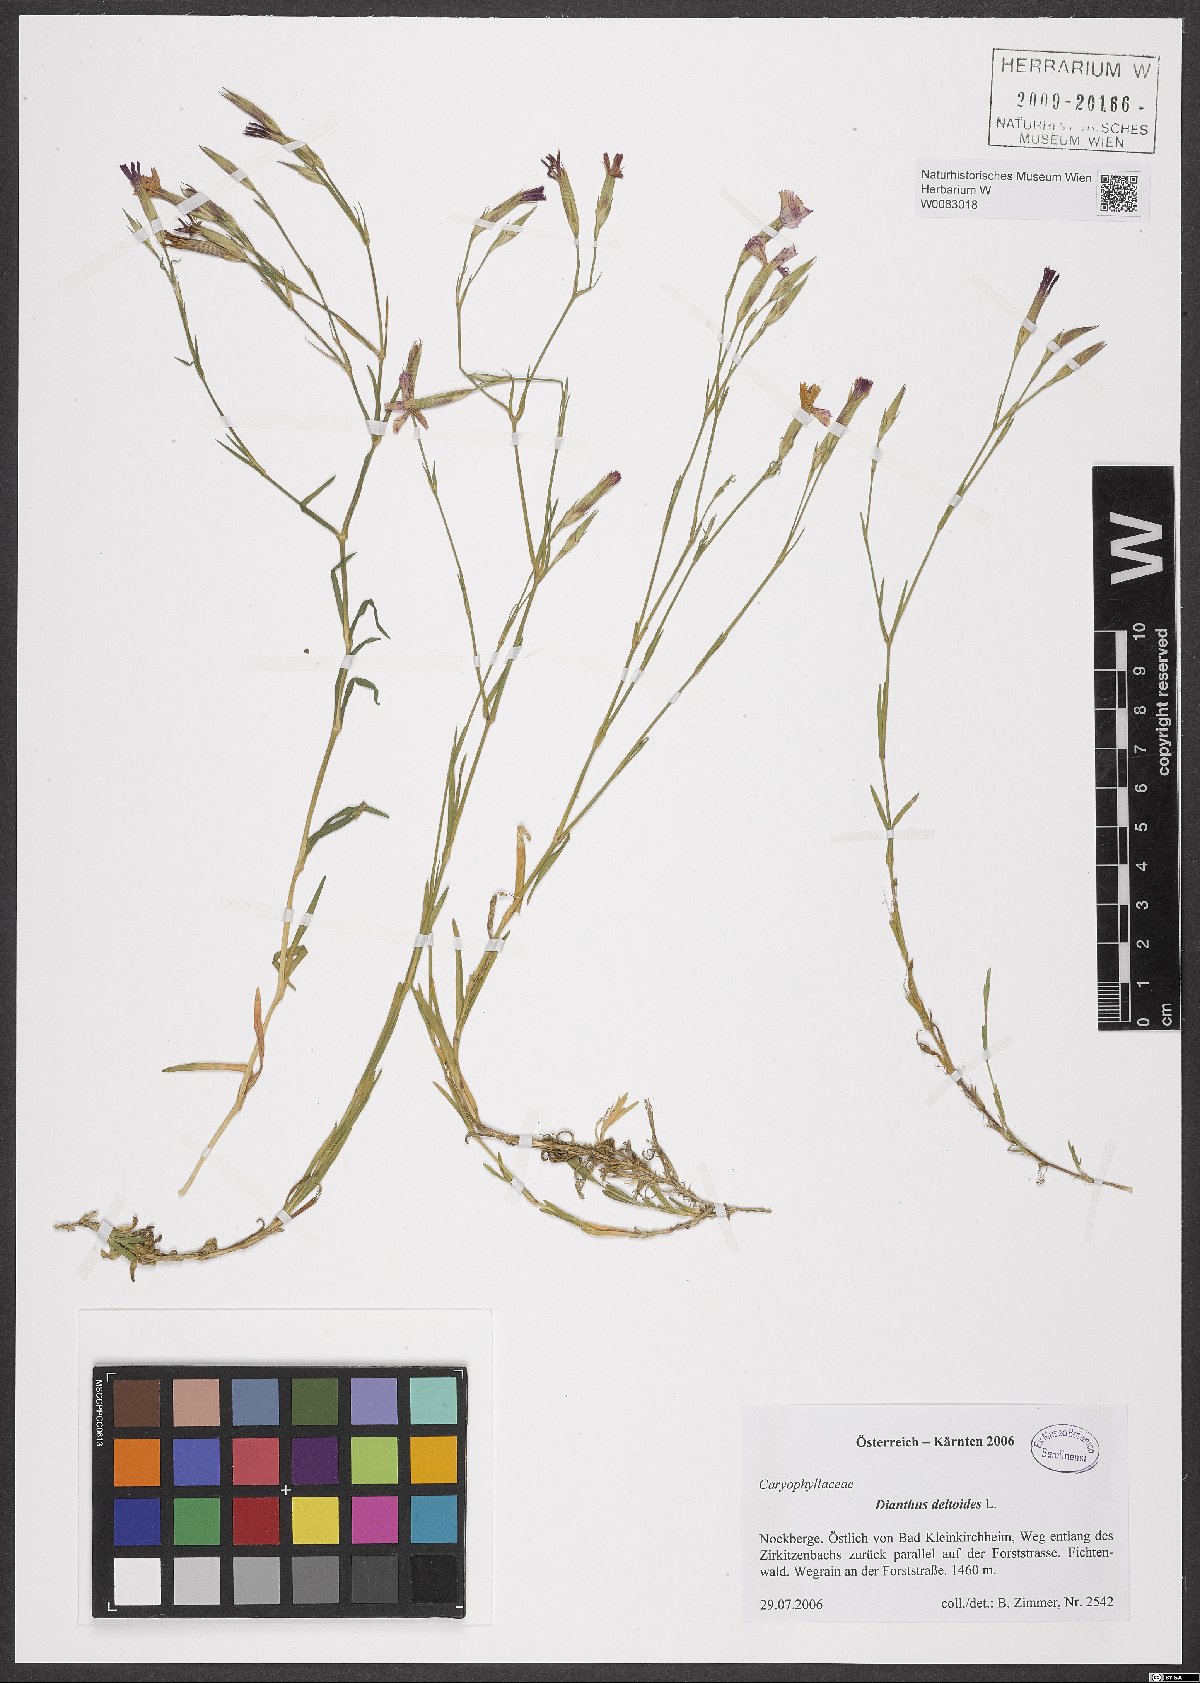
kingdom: Plantae
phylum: Tracheophyta
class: Magnoliopsida
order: Caryophyllales
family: Caryophyllaceae
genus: Dianthus
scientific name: Dianthus deltoides
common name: Maiden pink
